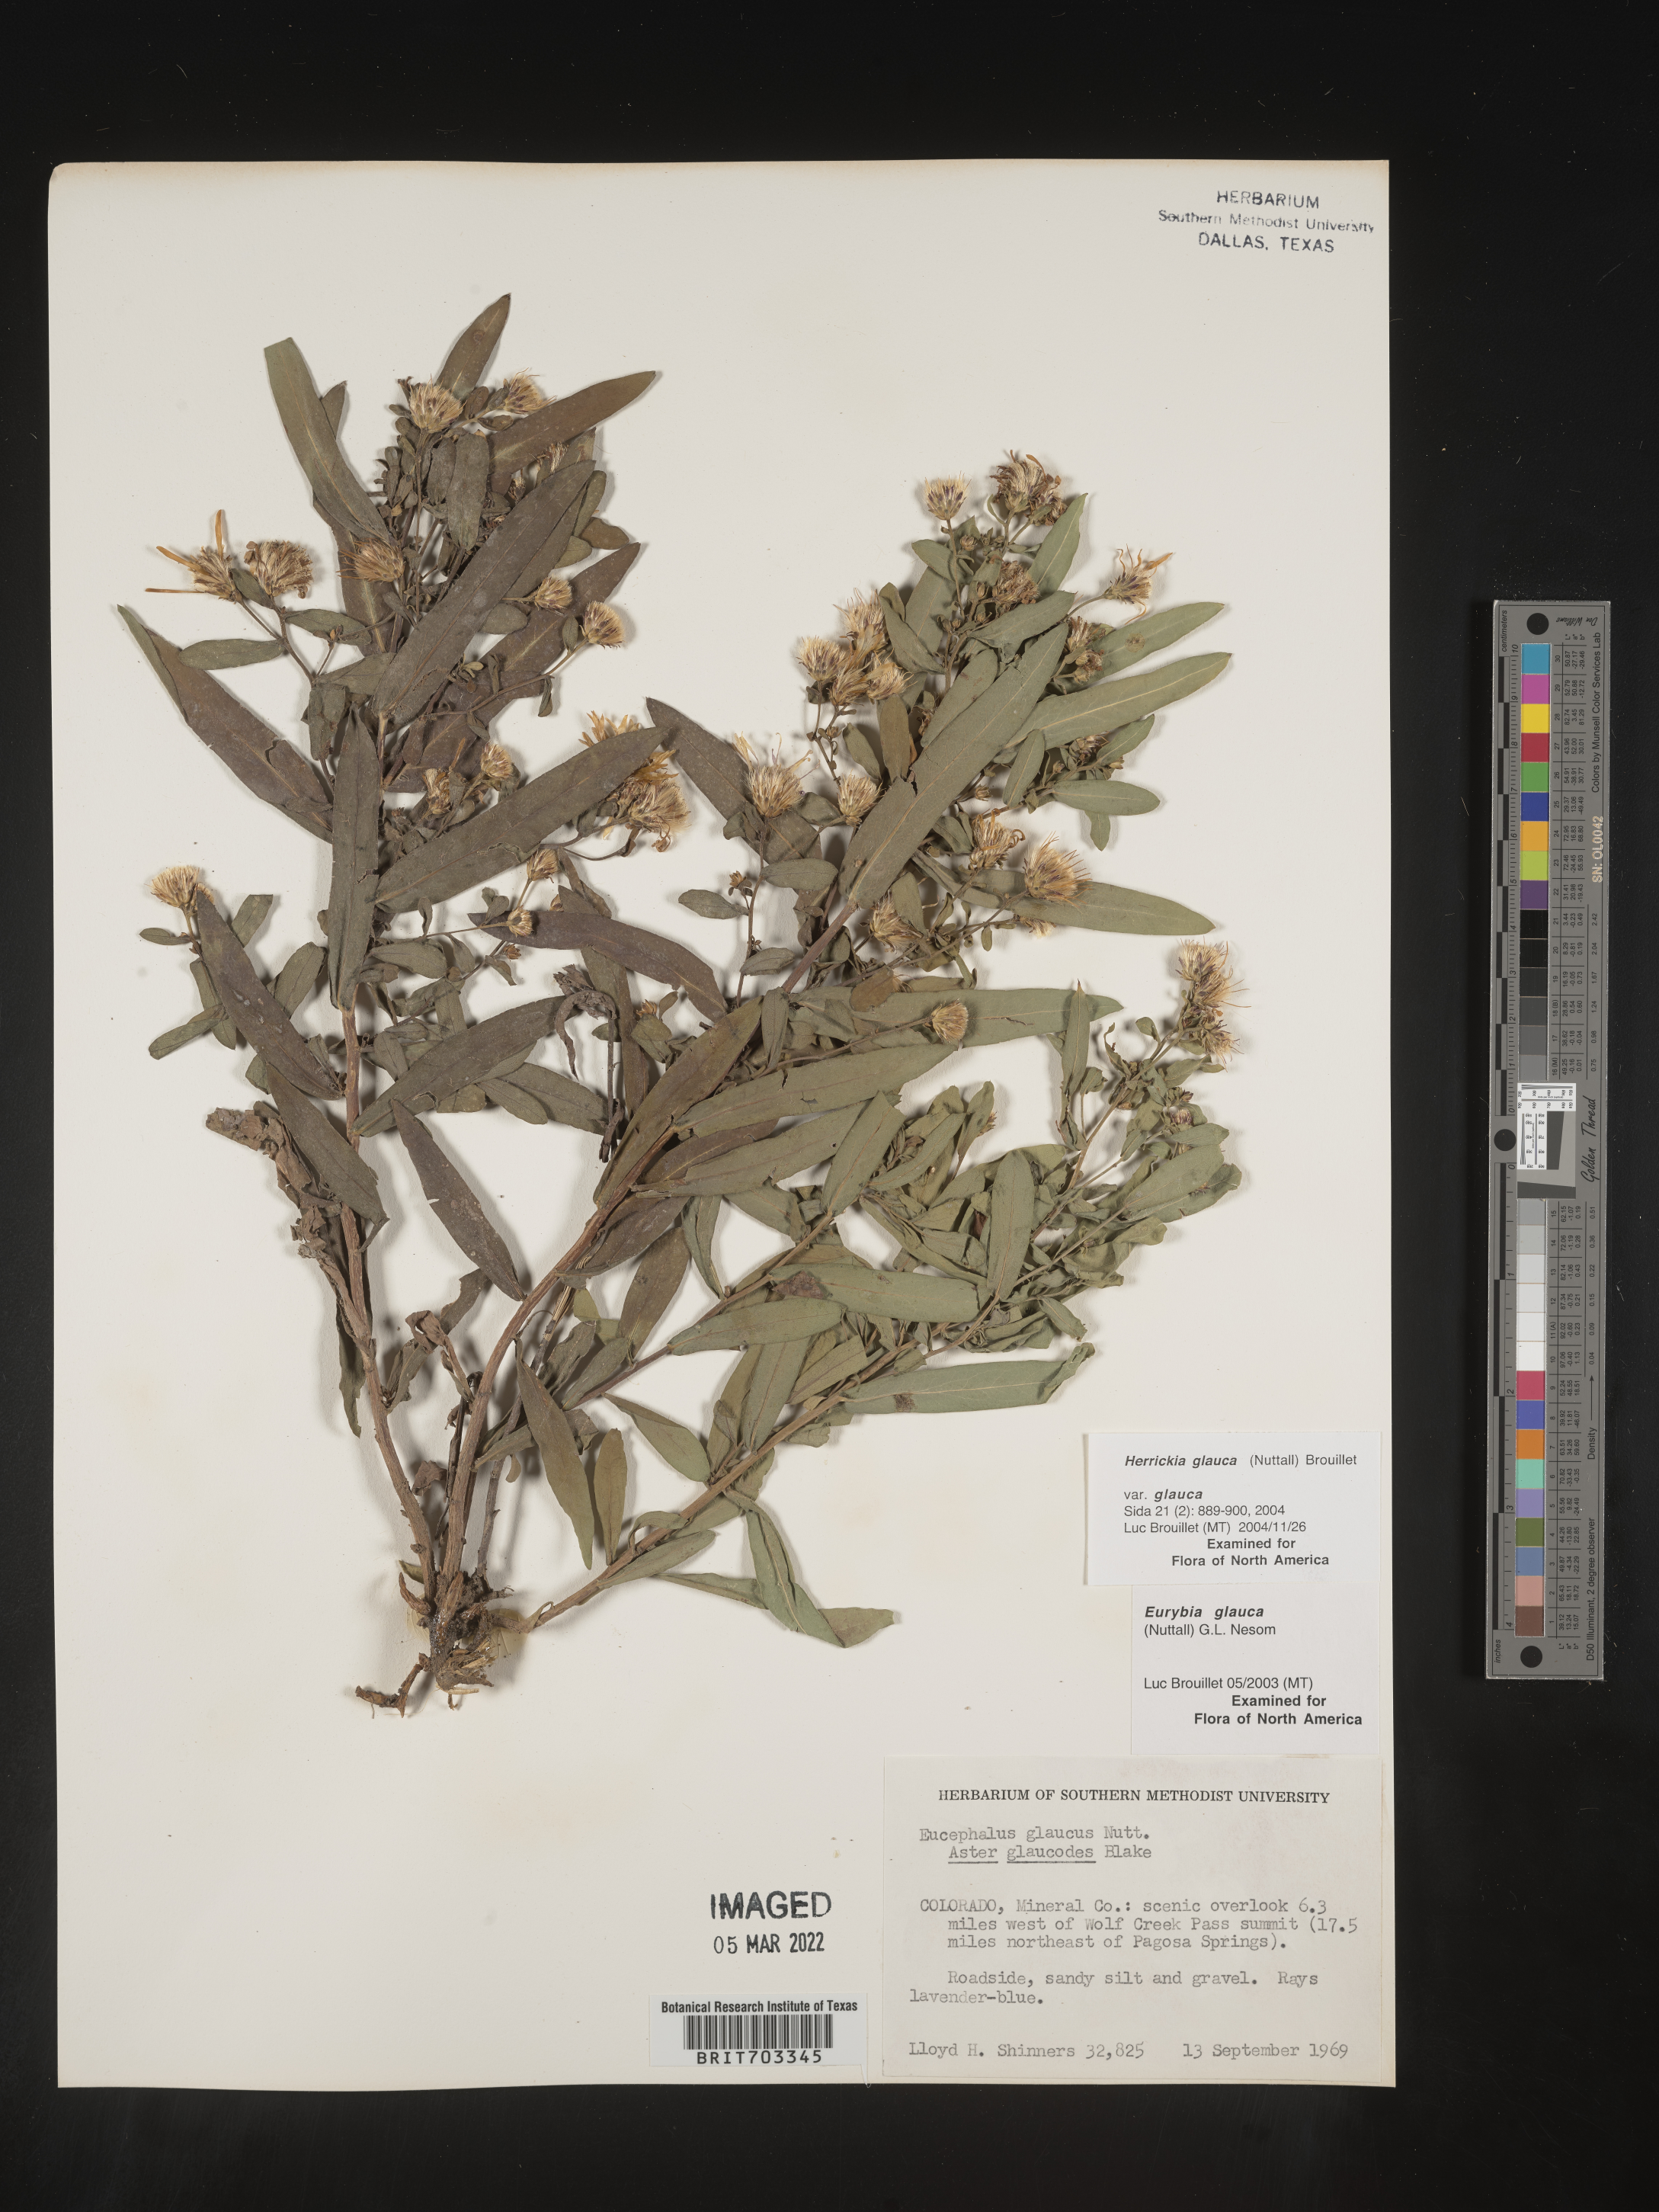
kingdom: Plantae
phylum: Tracheophyta
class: Magnoliopsida
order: Asterales
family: Asteraceae
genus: Eurybia
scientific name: Eurybia glauca
